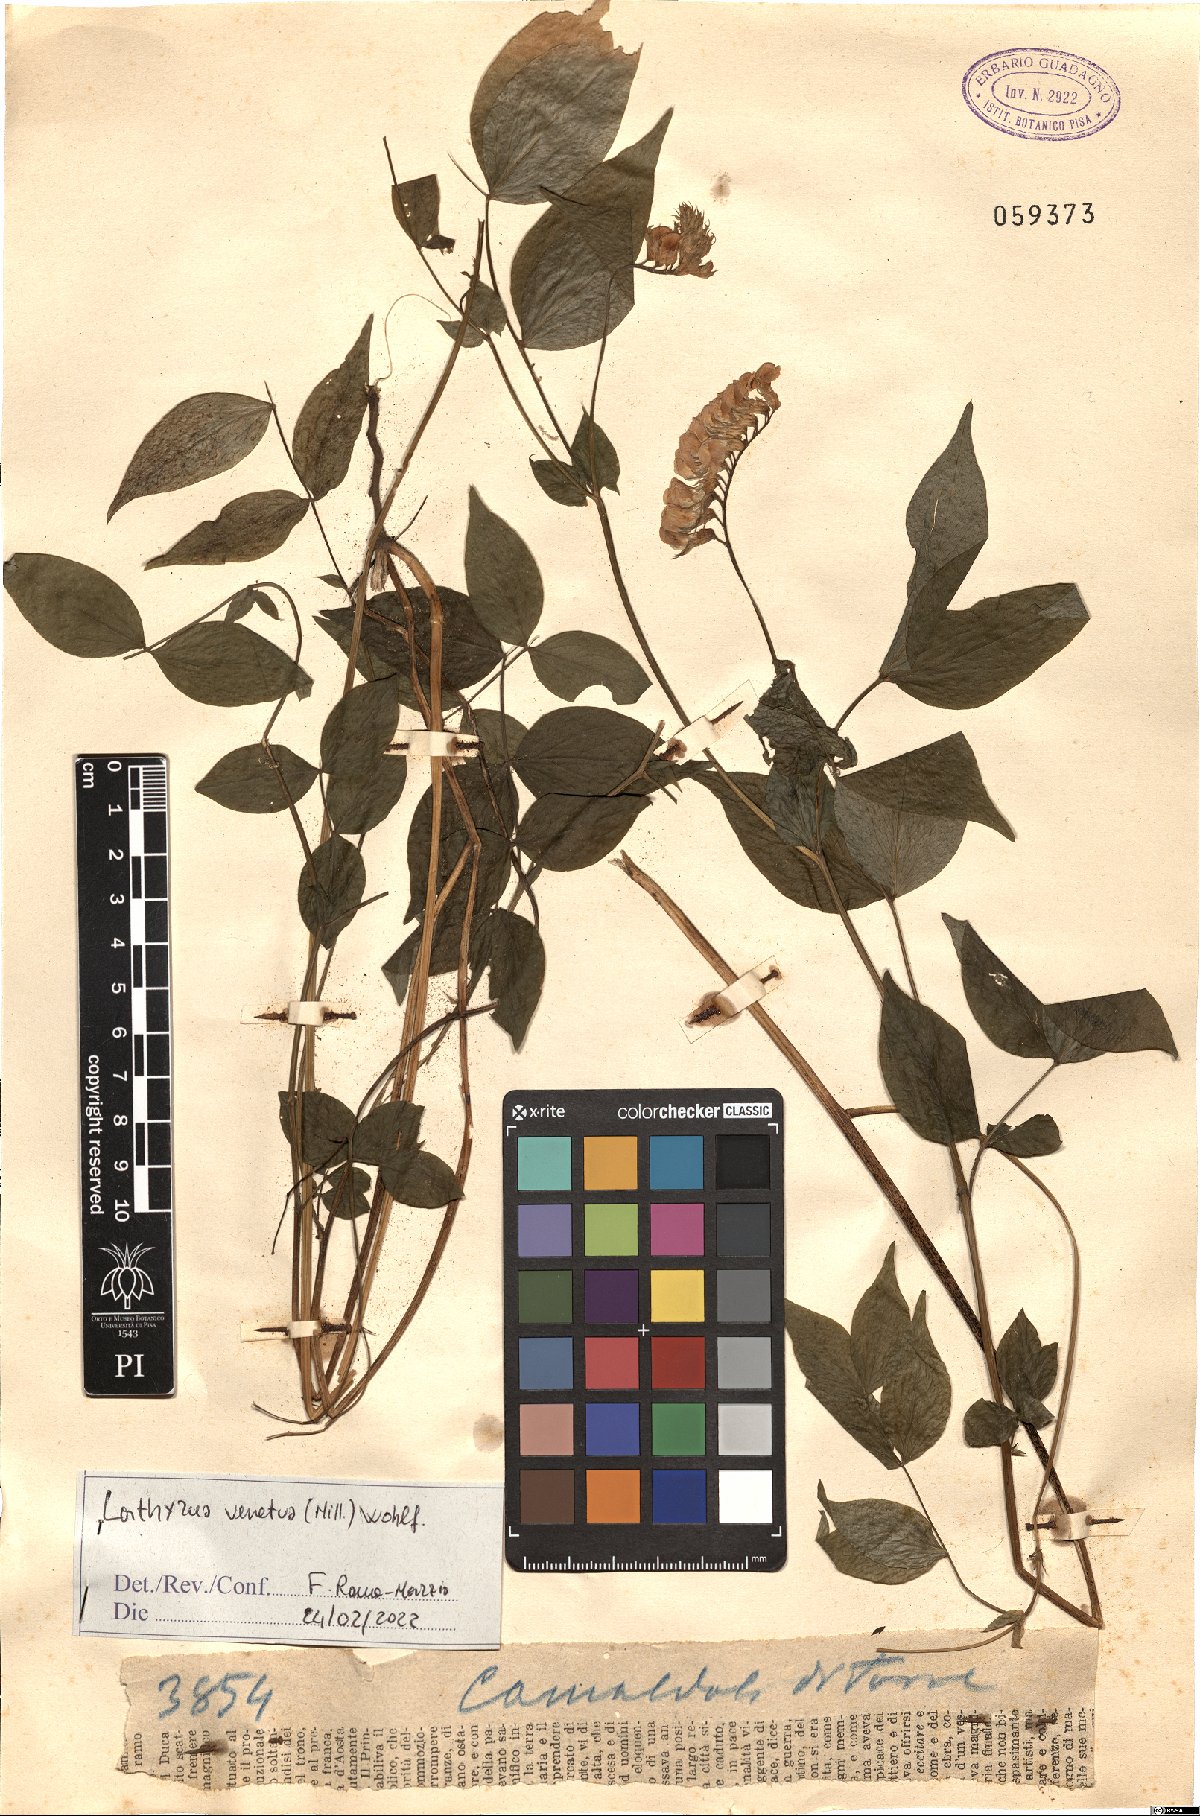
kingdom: Plantae
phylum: Tracheophyta
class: Magnoliopsida
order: Fabales
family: Fabaceae
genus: Lathyrus
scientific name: Lathyrus venetus
